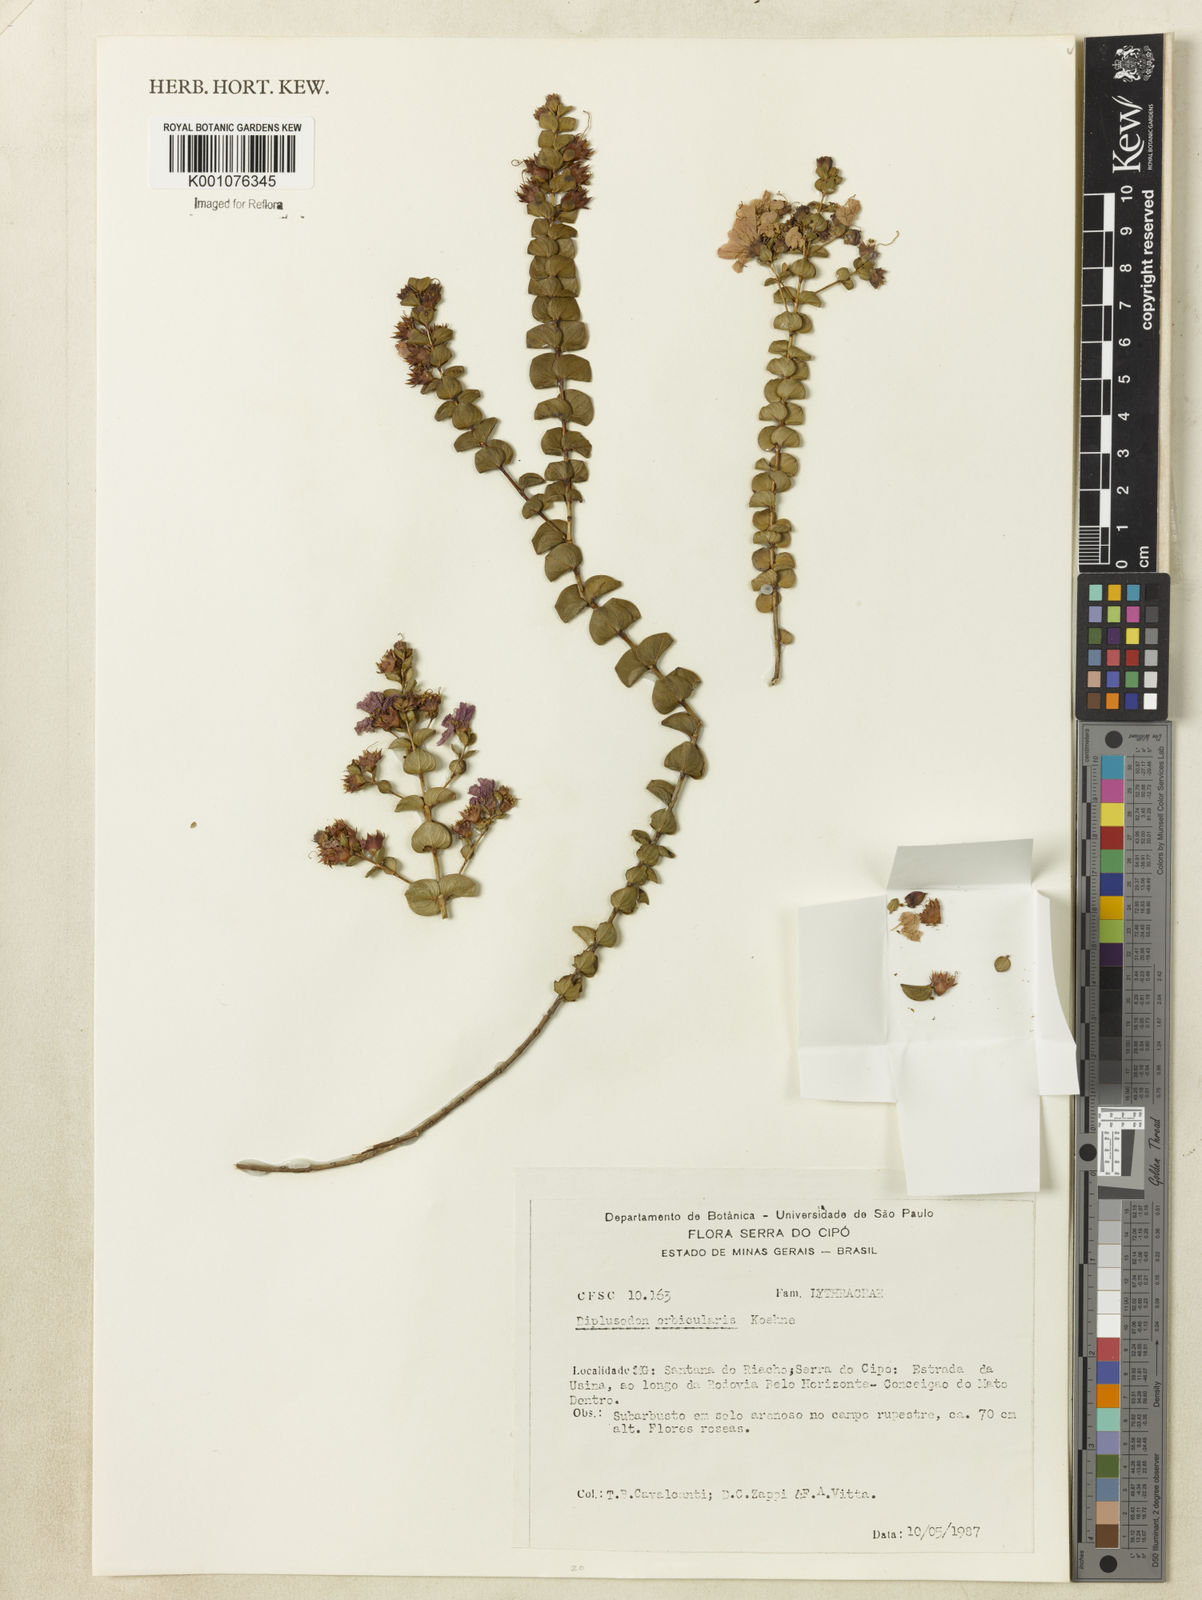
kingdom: Plantae
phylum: Tracheophyta
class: Magnoliopsida
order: Myrtales
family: Lythraceae
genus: Diplusodon
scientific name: Diplusodon orbicularis
